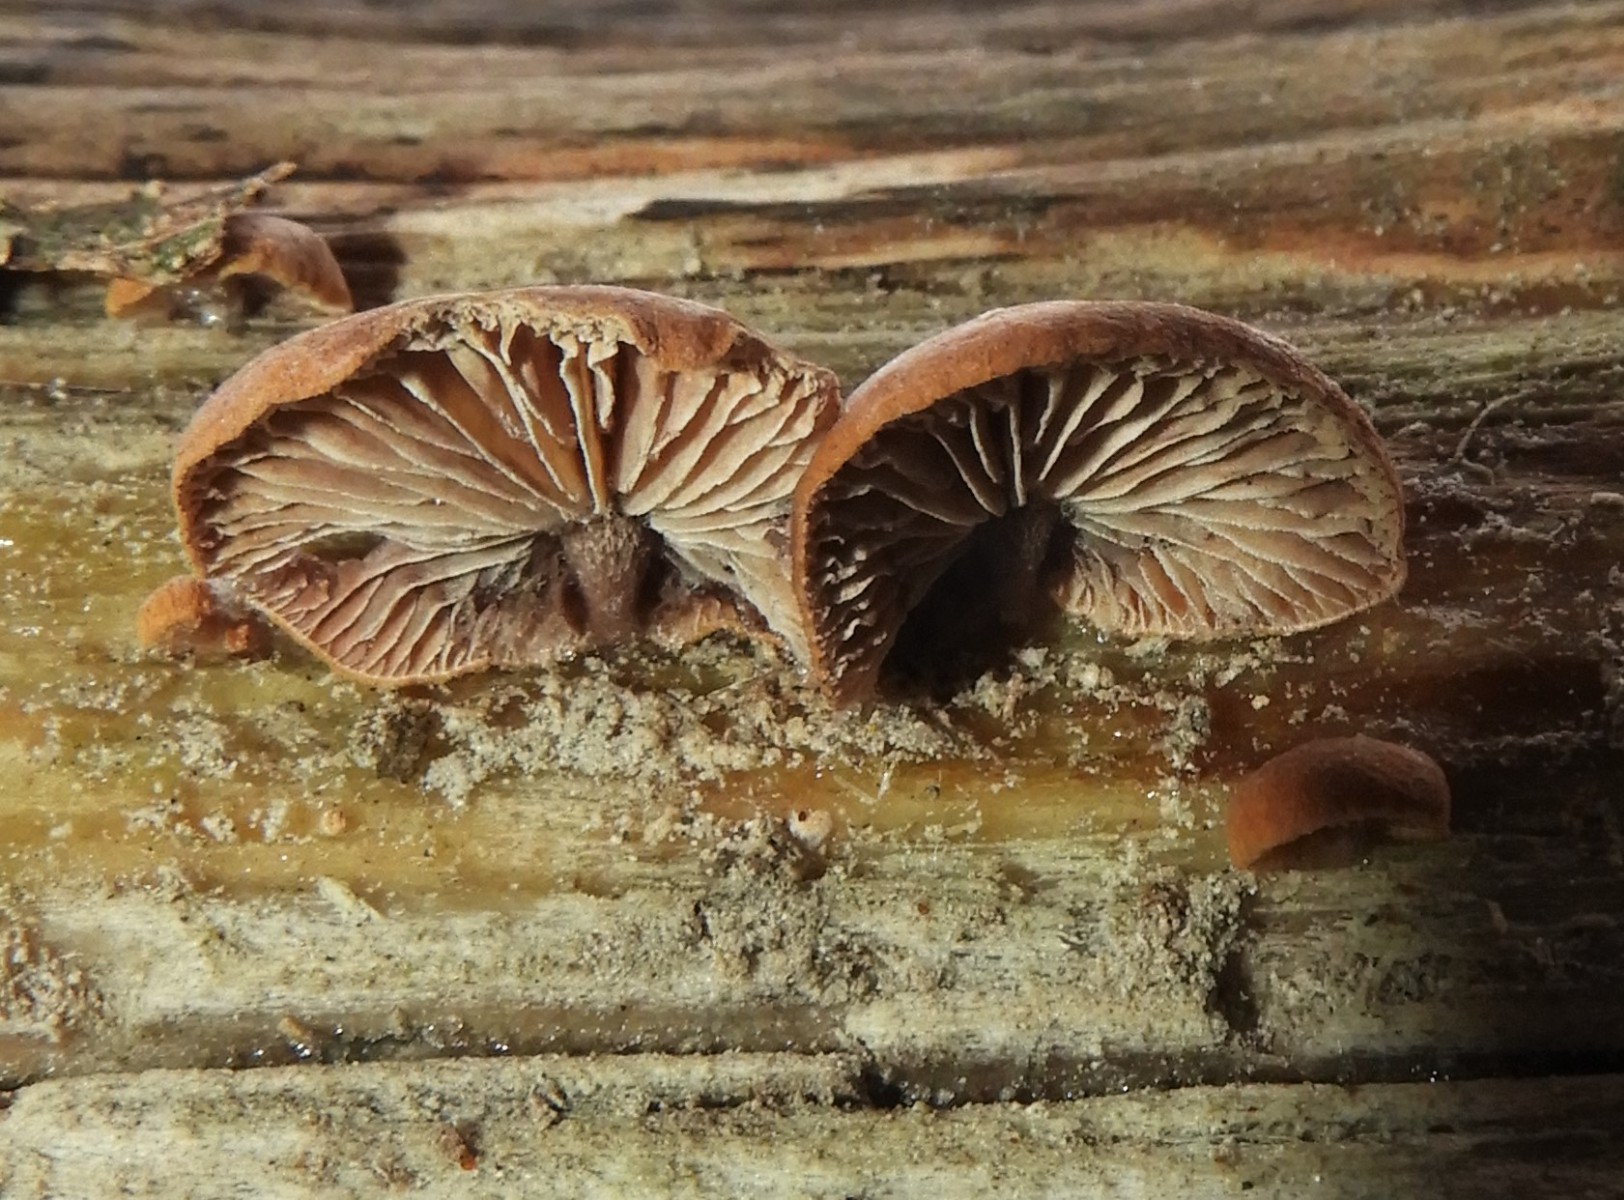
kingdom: Fungi
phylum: Basidiomycota
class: Agaricomycetes
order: Agaricales
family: Strophariaceae
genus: Deconica
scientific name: Deconica horizontalis
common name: ved-stråhat
